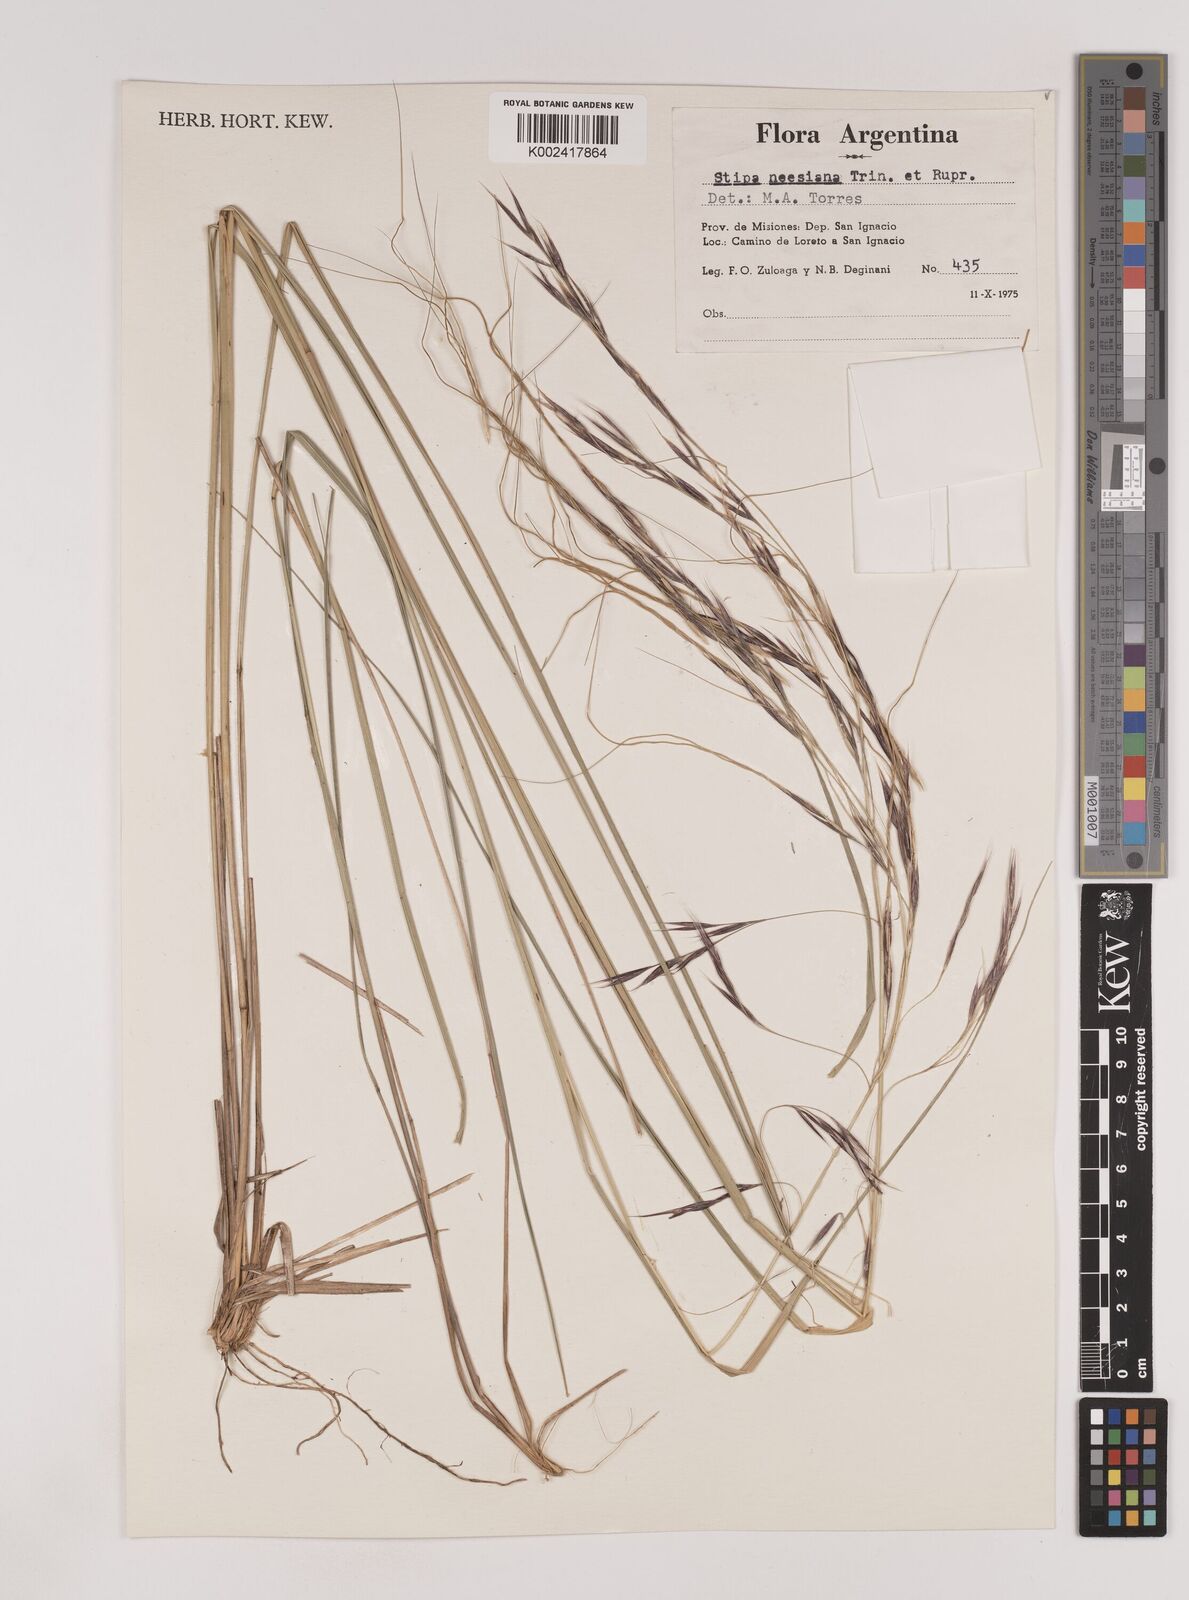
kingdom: Plantae
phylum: Tracheophyta
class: Liliopsida
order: Poales
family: Poaceae
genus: Nassella
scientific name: Nassella neesiana
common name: American needle-grass
